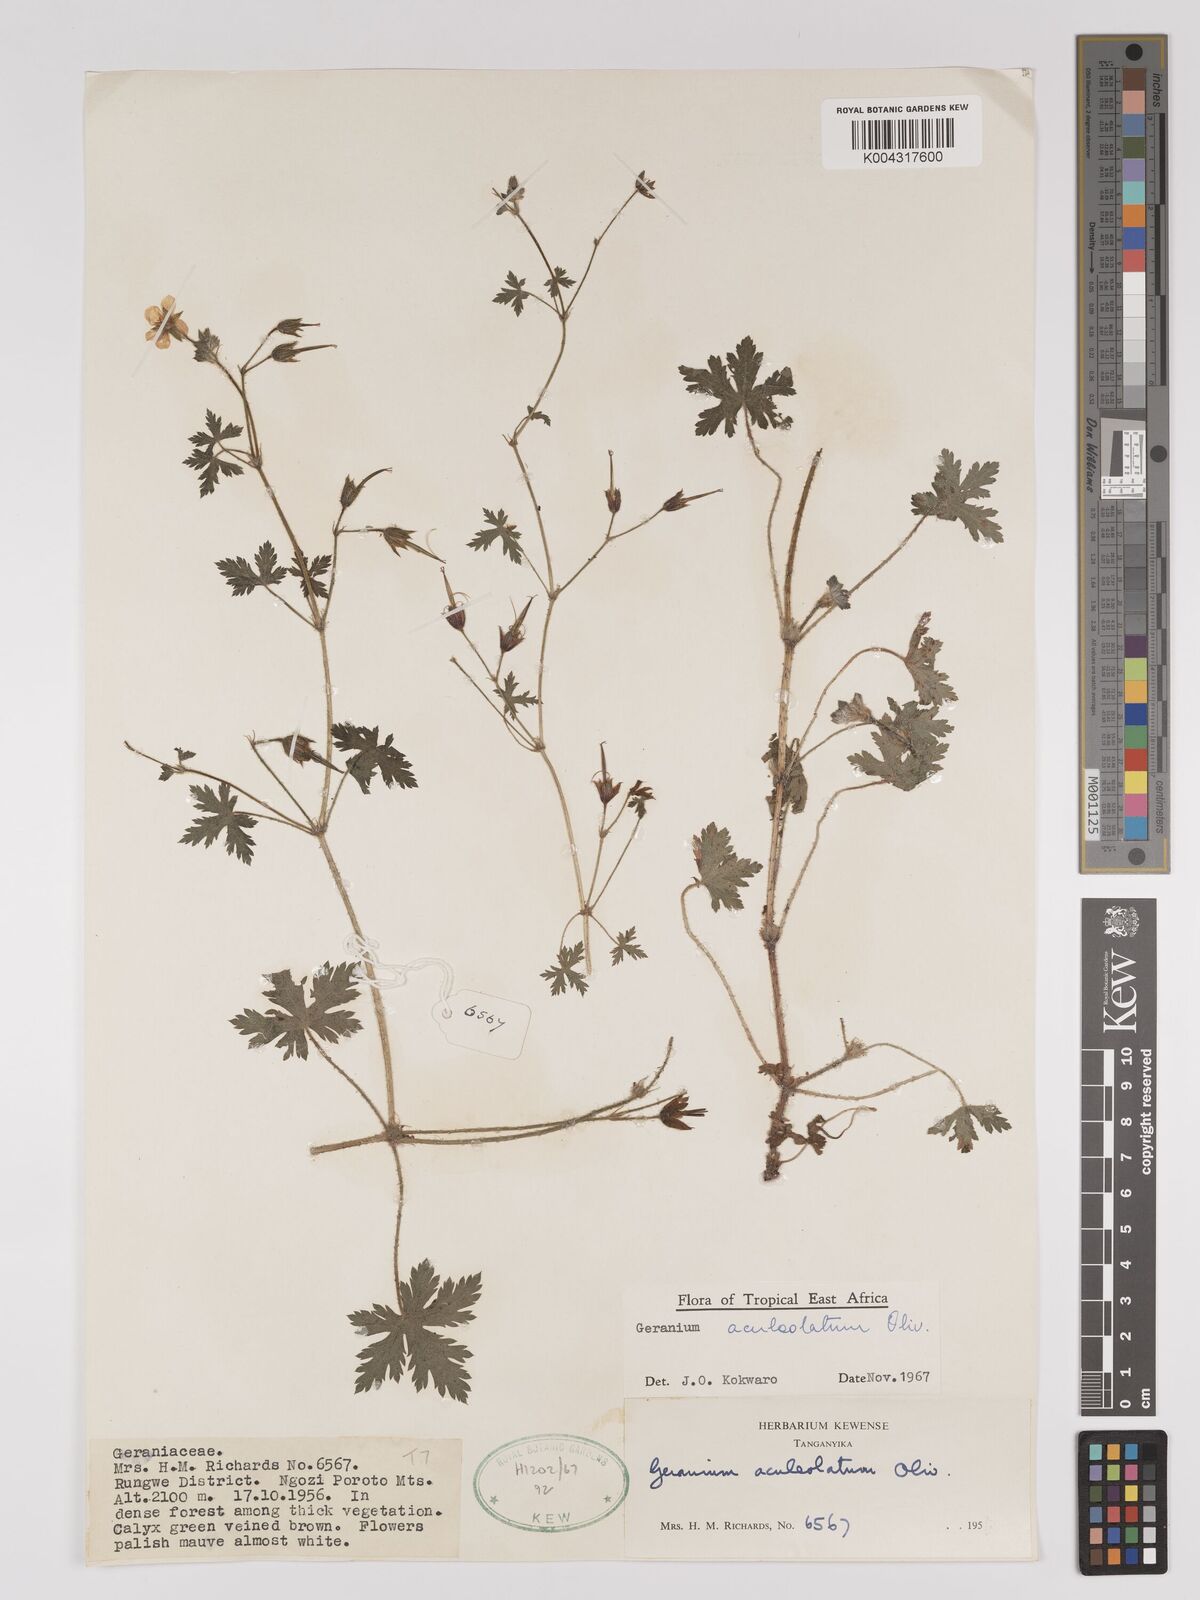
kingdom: Plantae
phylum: Tracheophyta
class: Magnoliopsida
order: Geraniales
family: Geraniaceae
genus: Geranium
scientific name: Geranium aculeolatum
